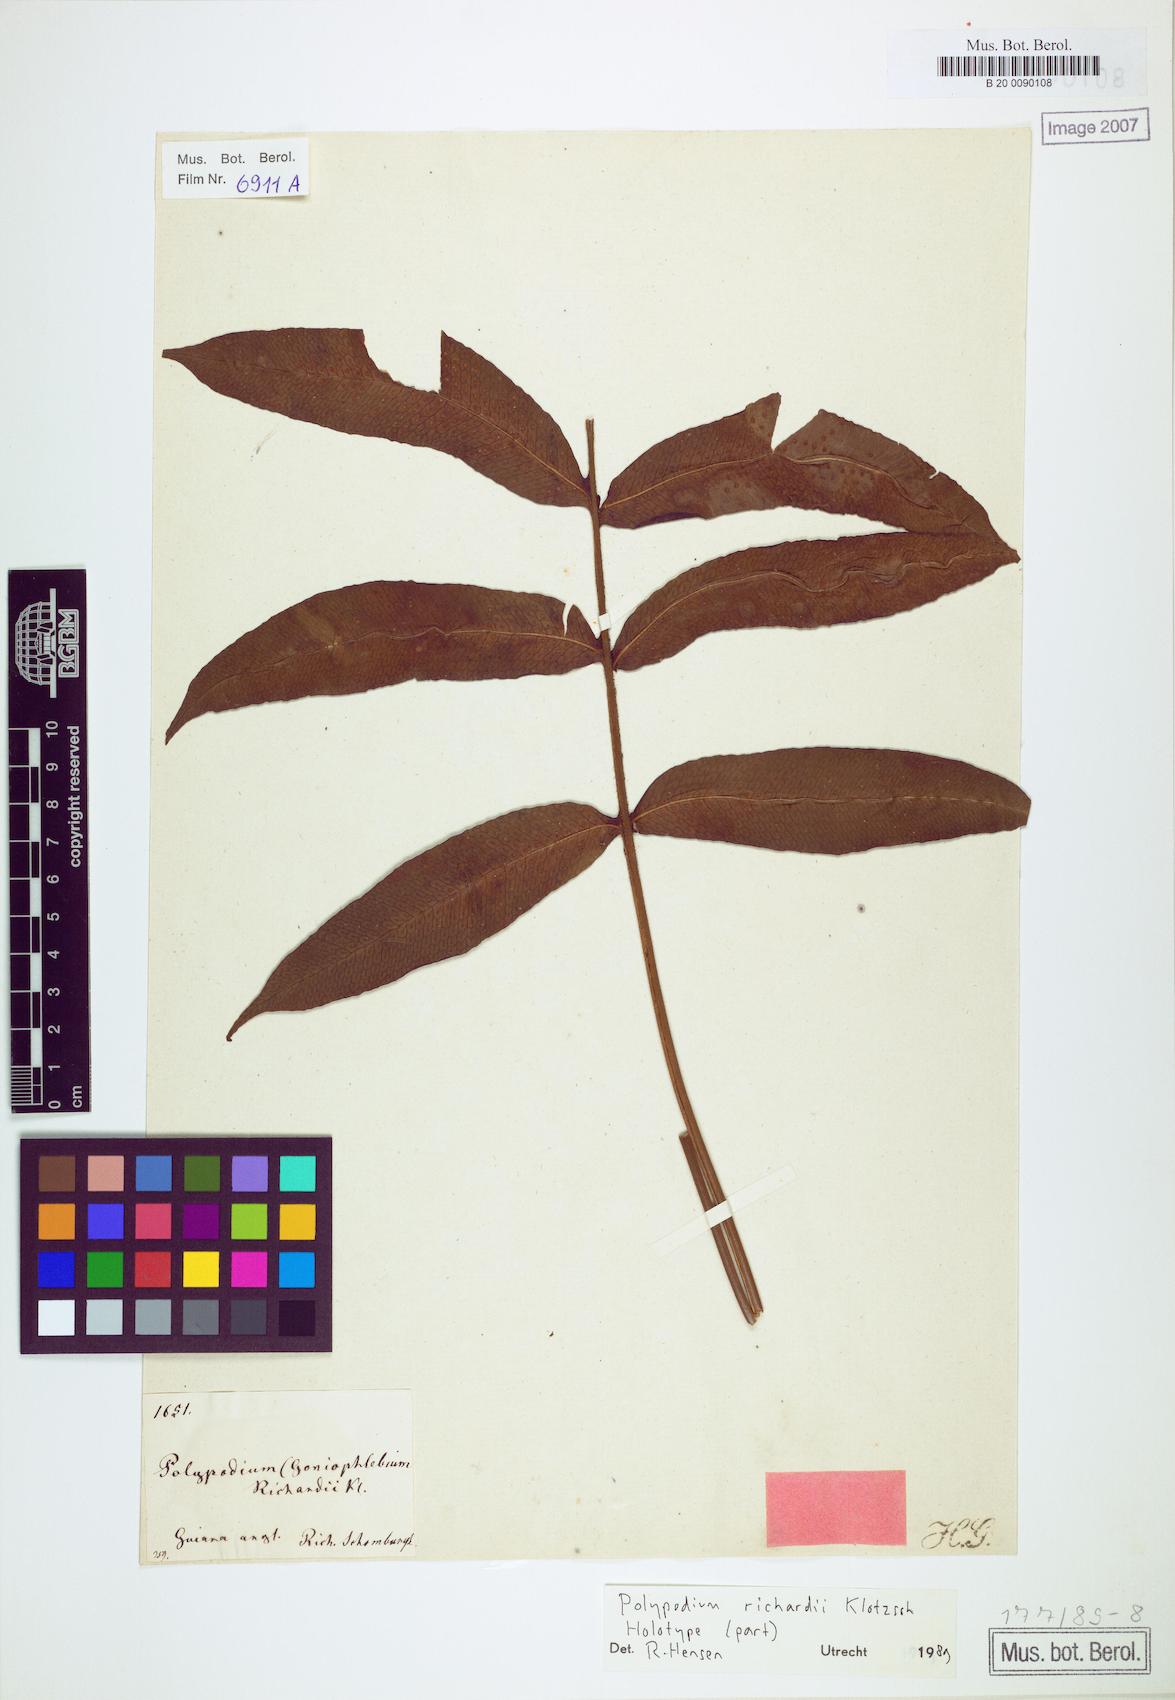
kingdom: Plantae
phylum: Tracheophyta
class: Polypodiopsida
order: Polypodiales
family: Polypodiaceae
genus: Serpocaulon
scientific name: Serpocaulon richardii
